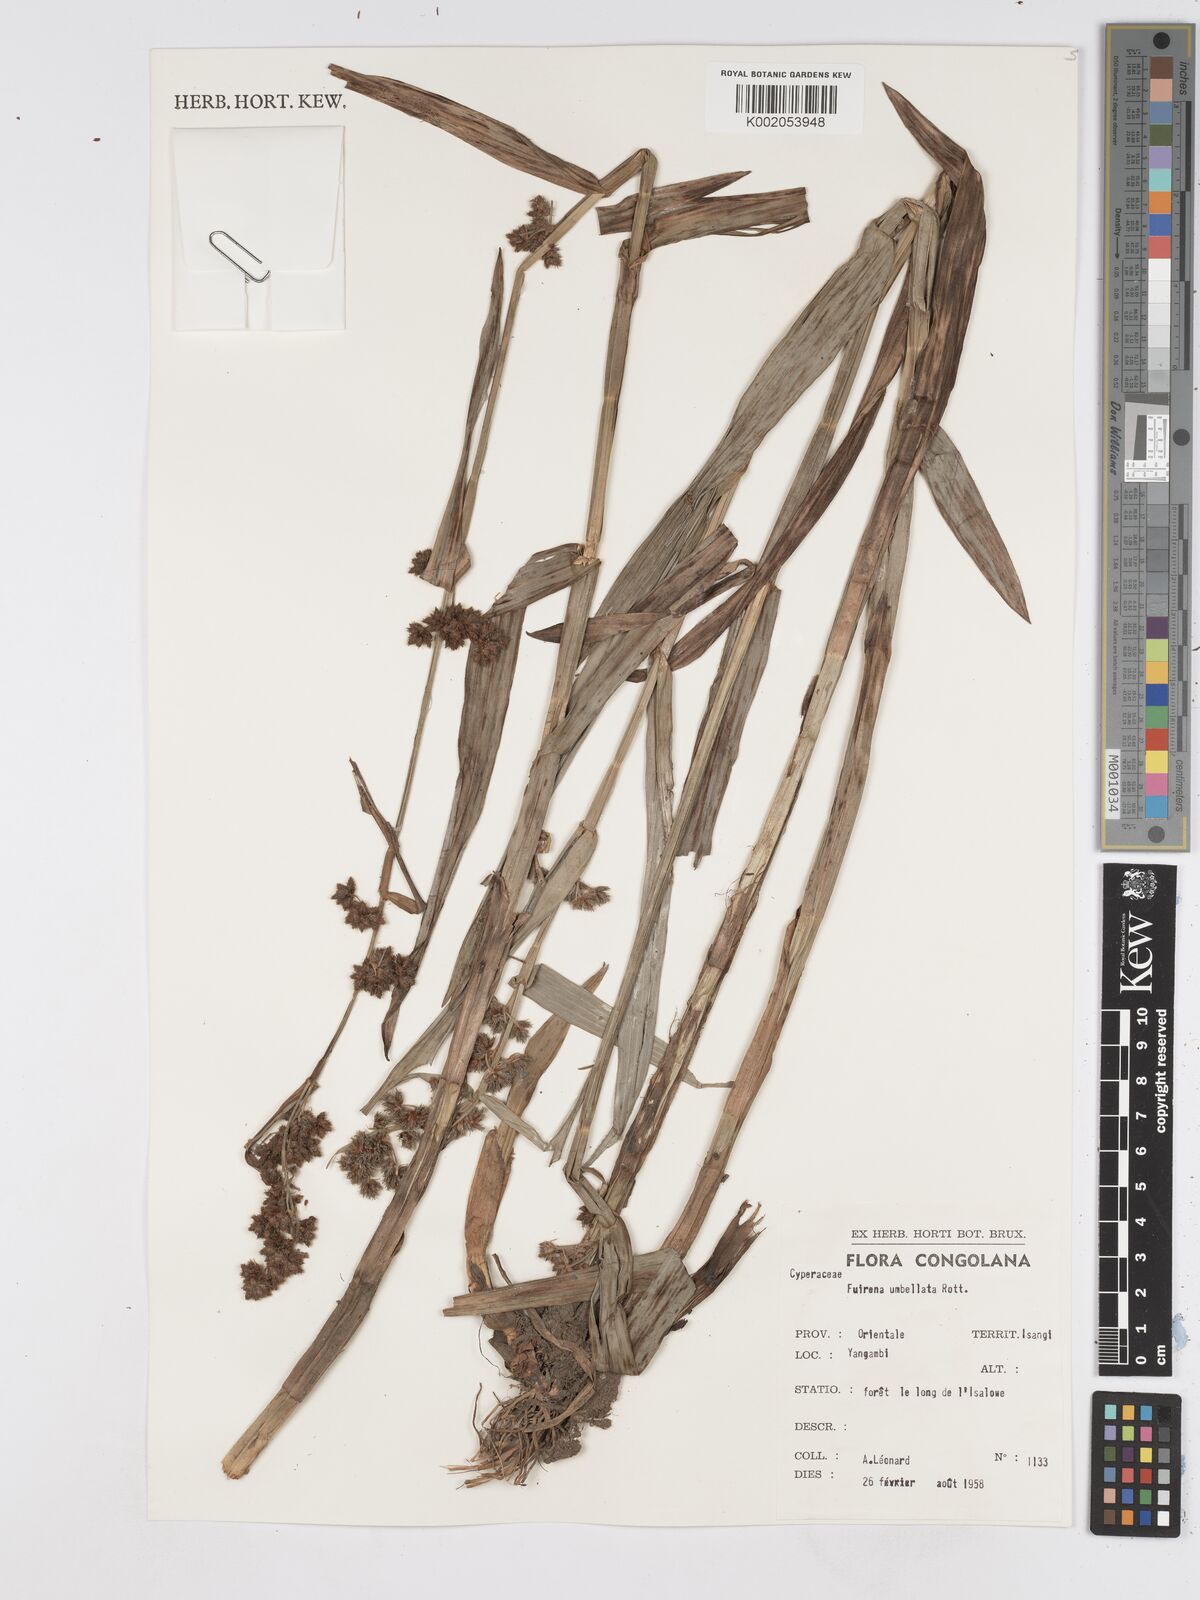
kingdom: Plantae
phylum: Tracheophyta
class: Liliopsida
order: Poales
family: Cyperaceae
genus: Fuirena
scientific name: Fuirena umbellata
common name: Yefen
